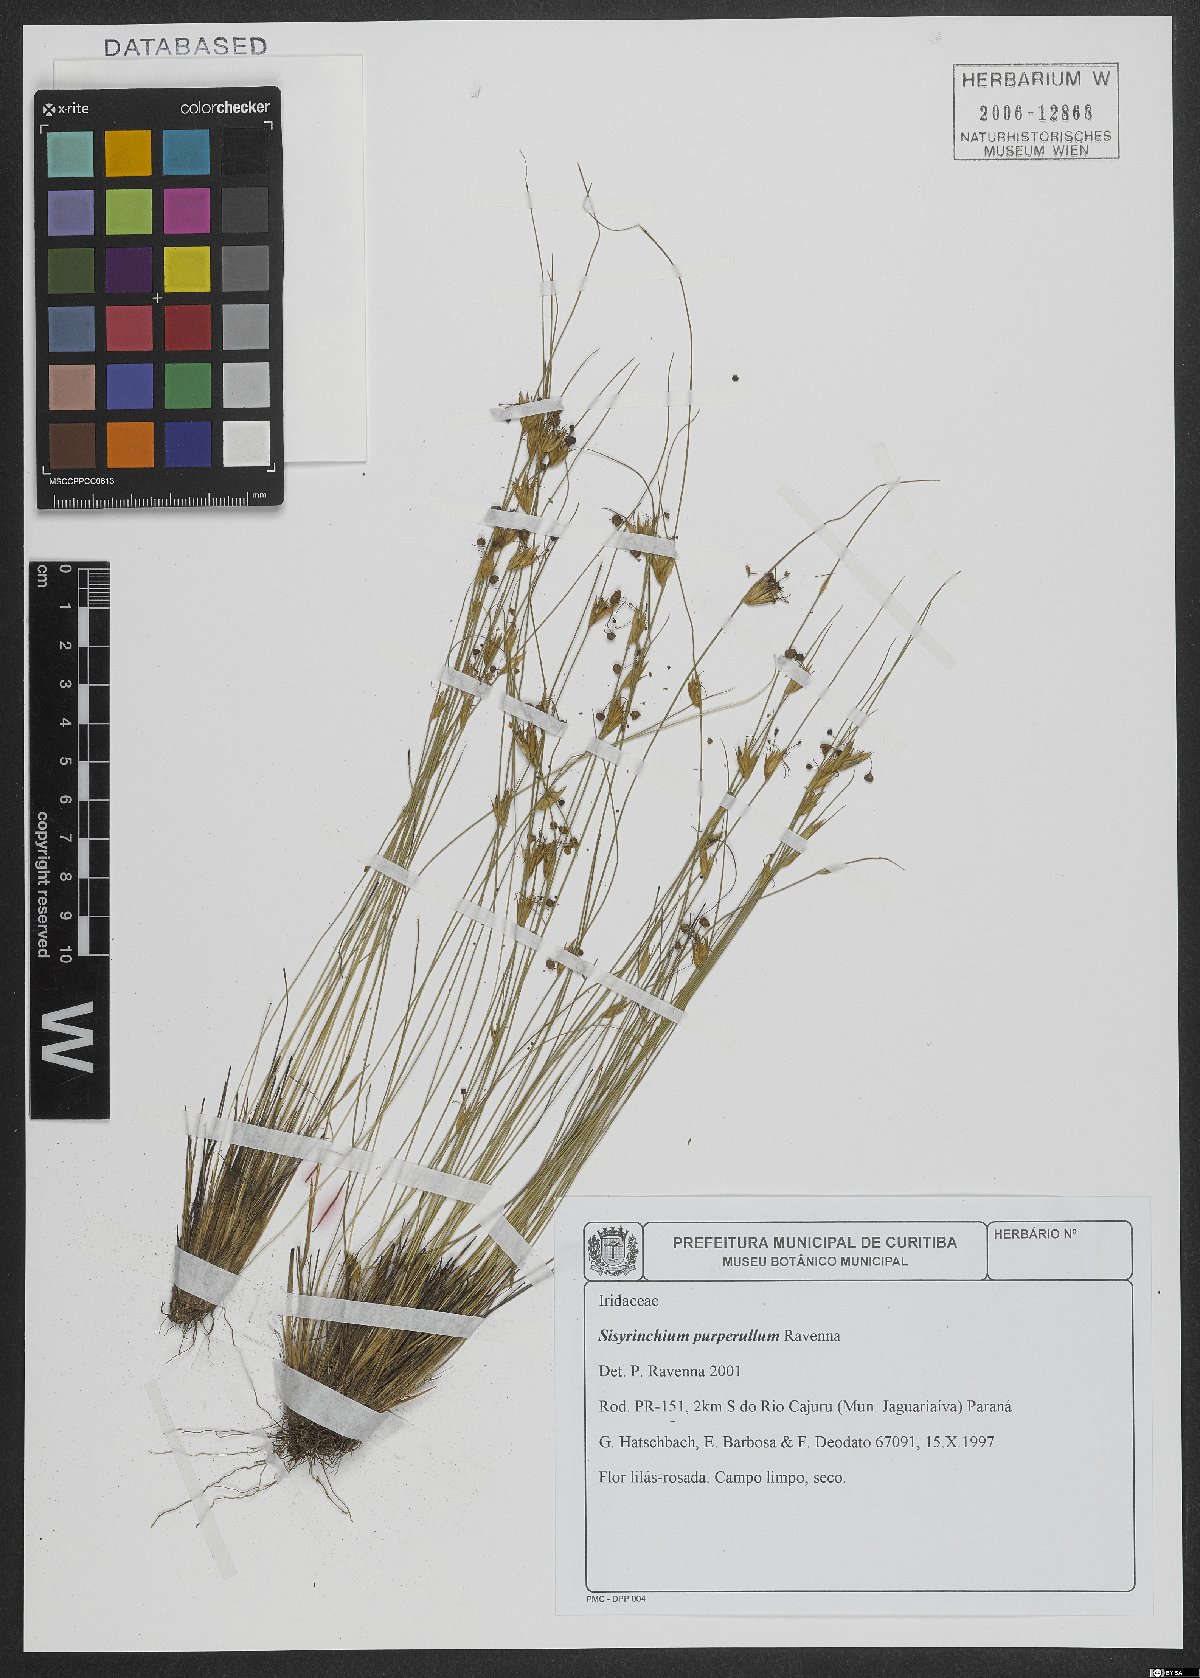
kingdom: Plantae
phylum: Tracheophyta
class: Liliopsida
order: Asparagales
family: Iridaceae
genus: Sisyrinchium
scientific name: Sisyrinchium purpurellum
